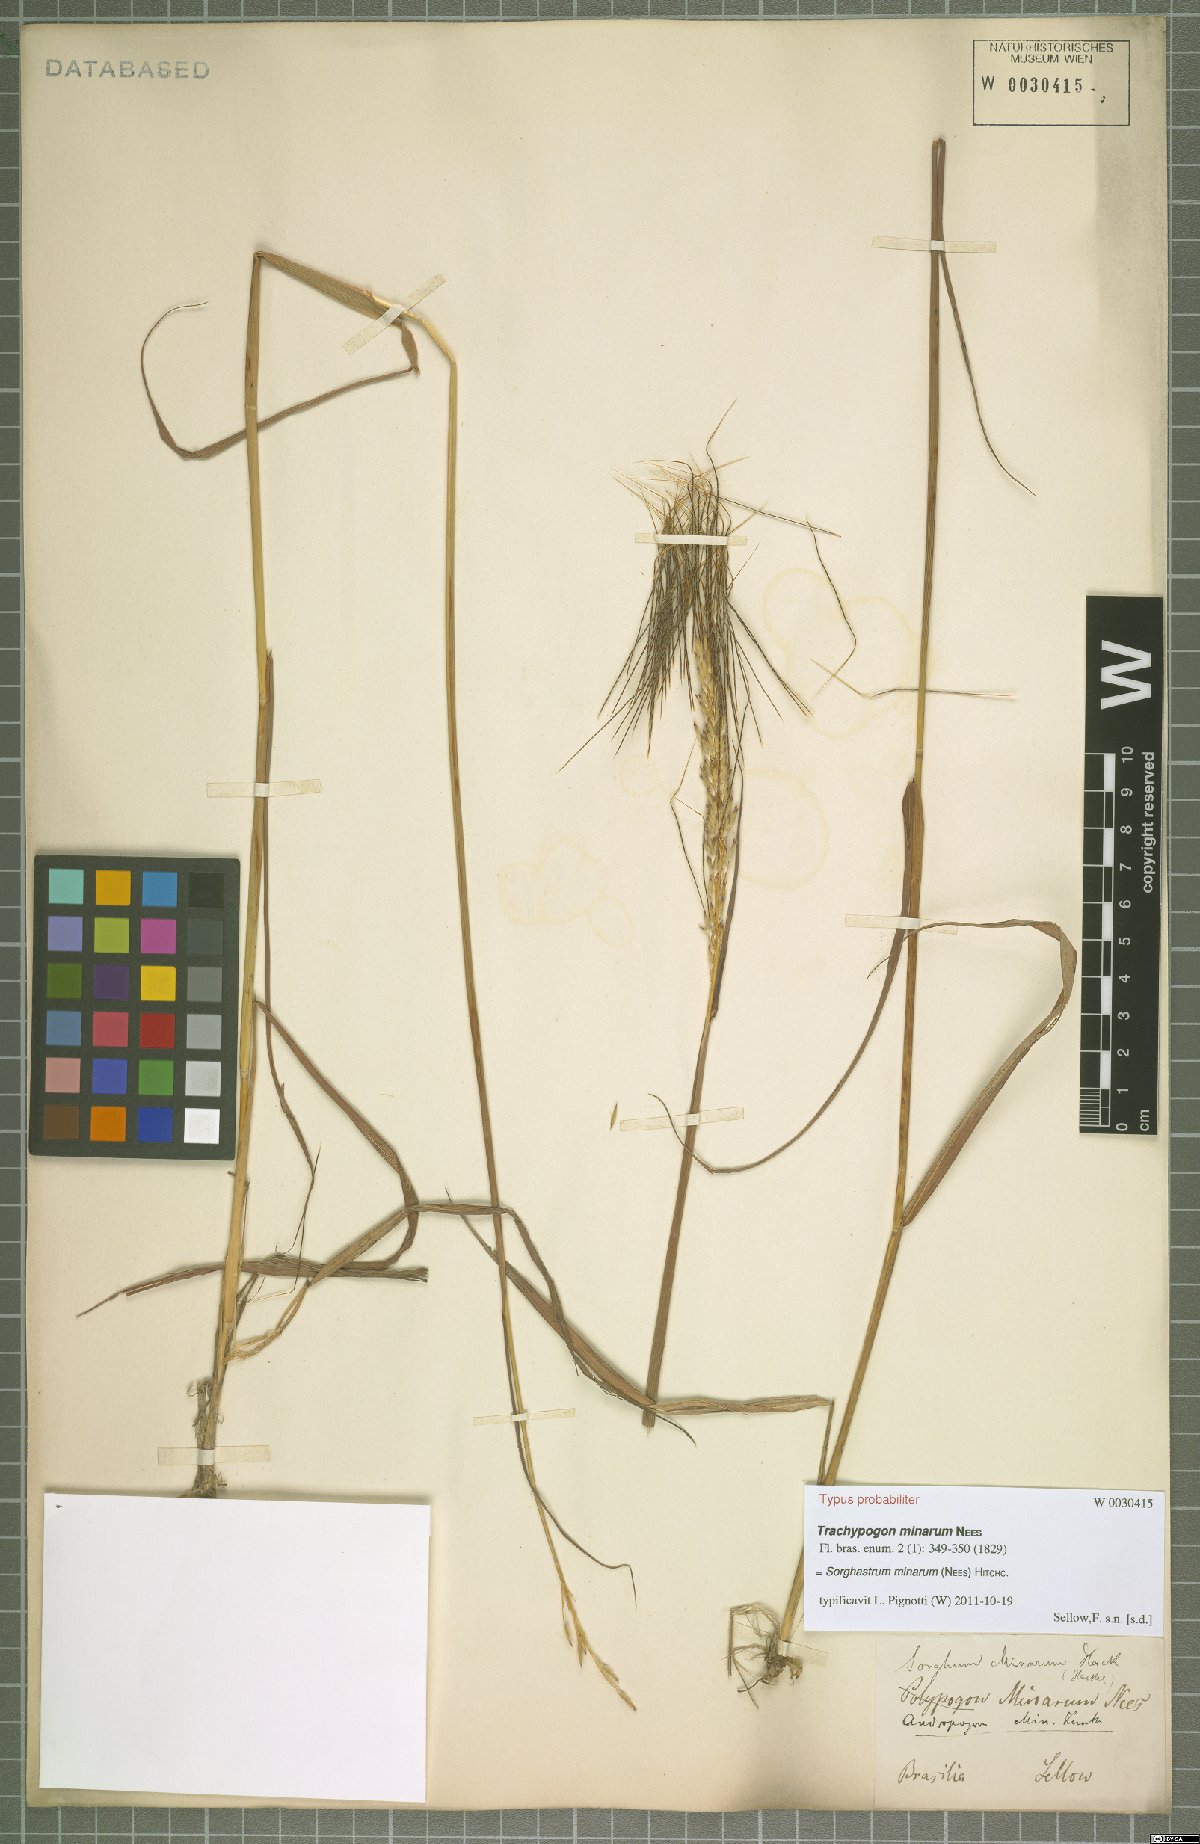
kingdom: Plantae
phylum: Tracheophyta
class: Liliopsida
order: Poales
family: Poaceae
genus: Sorghastrum
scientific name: Sorghastrum minarum
